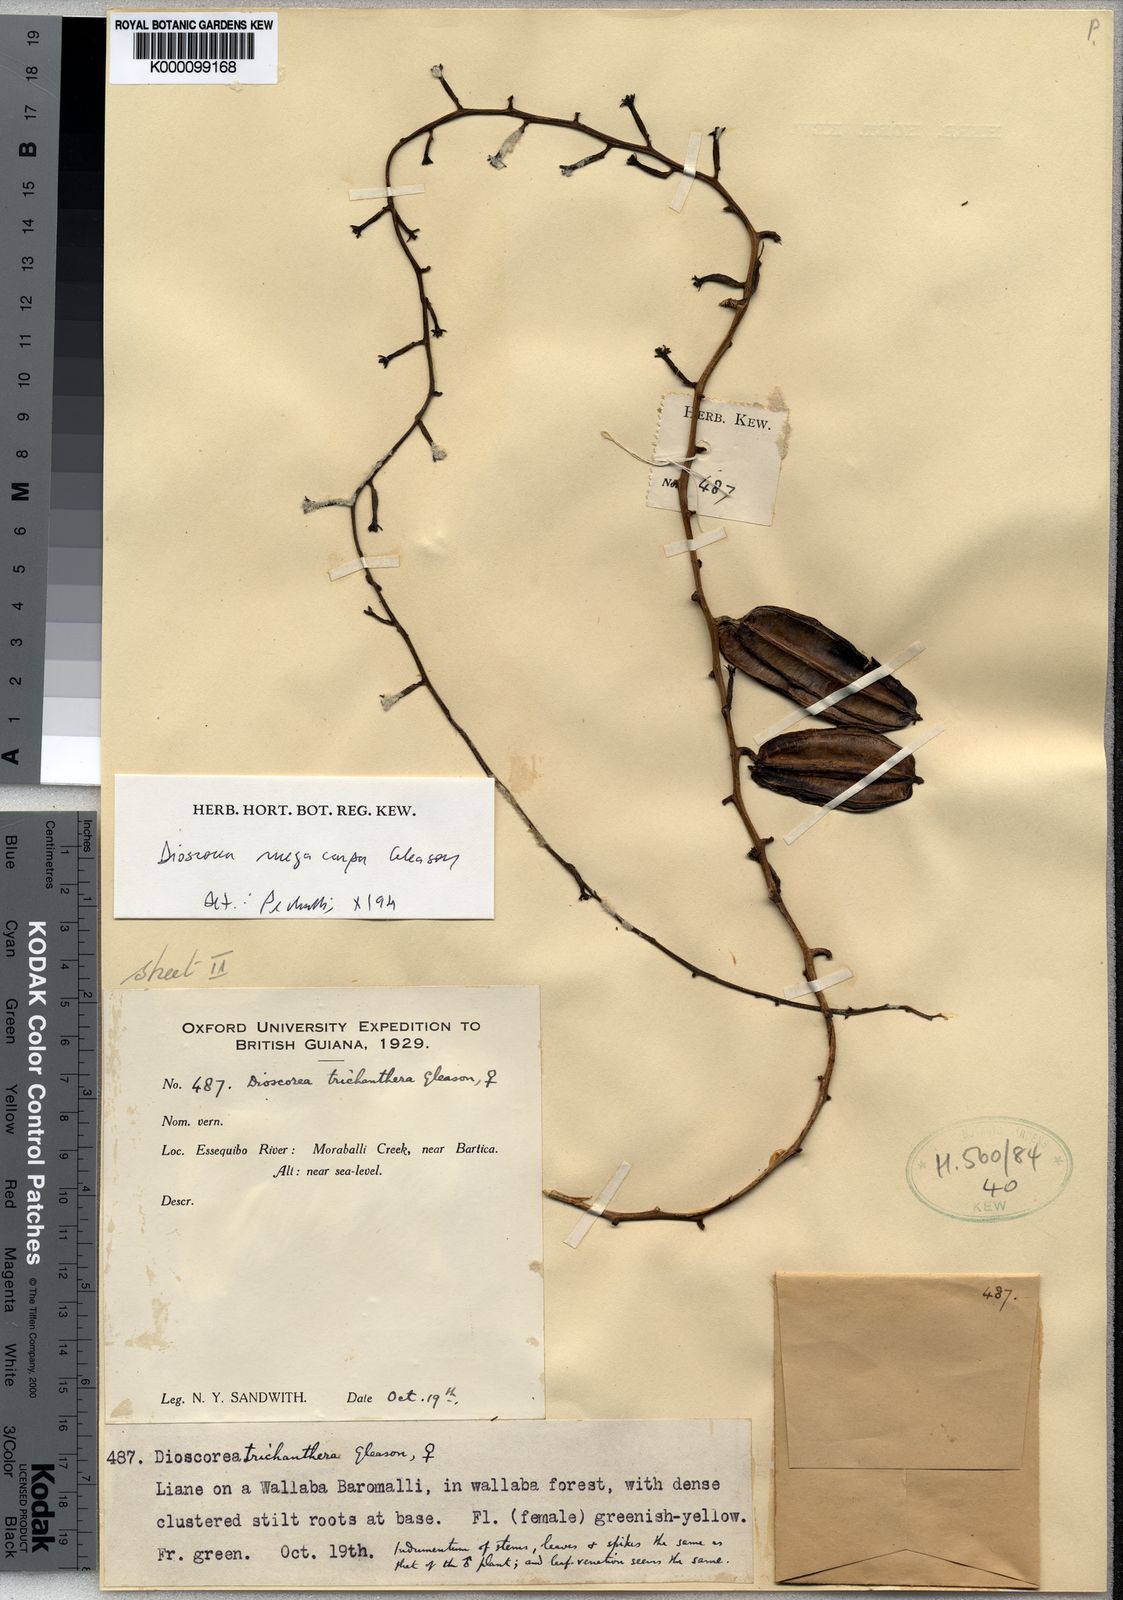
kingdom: Plantae
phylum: Tracheophyta
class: Liliopsida
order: Dioscoreales
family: Dioscoreaceae
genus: Dioscorea
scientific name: Dioscorea trichanthera
